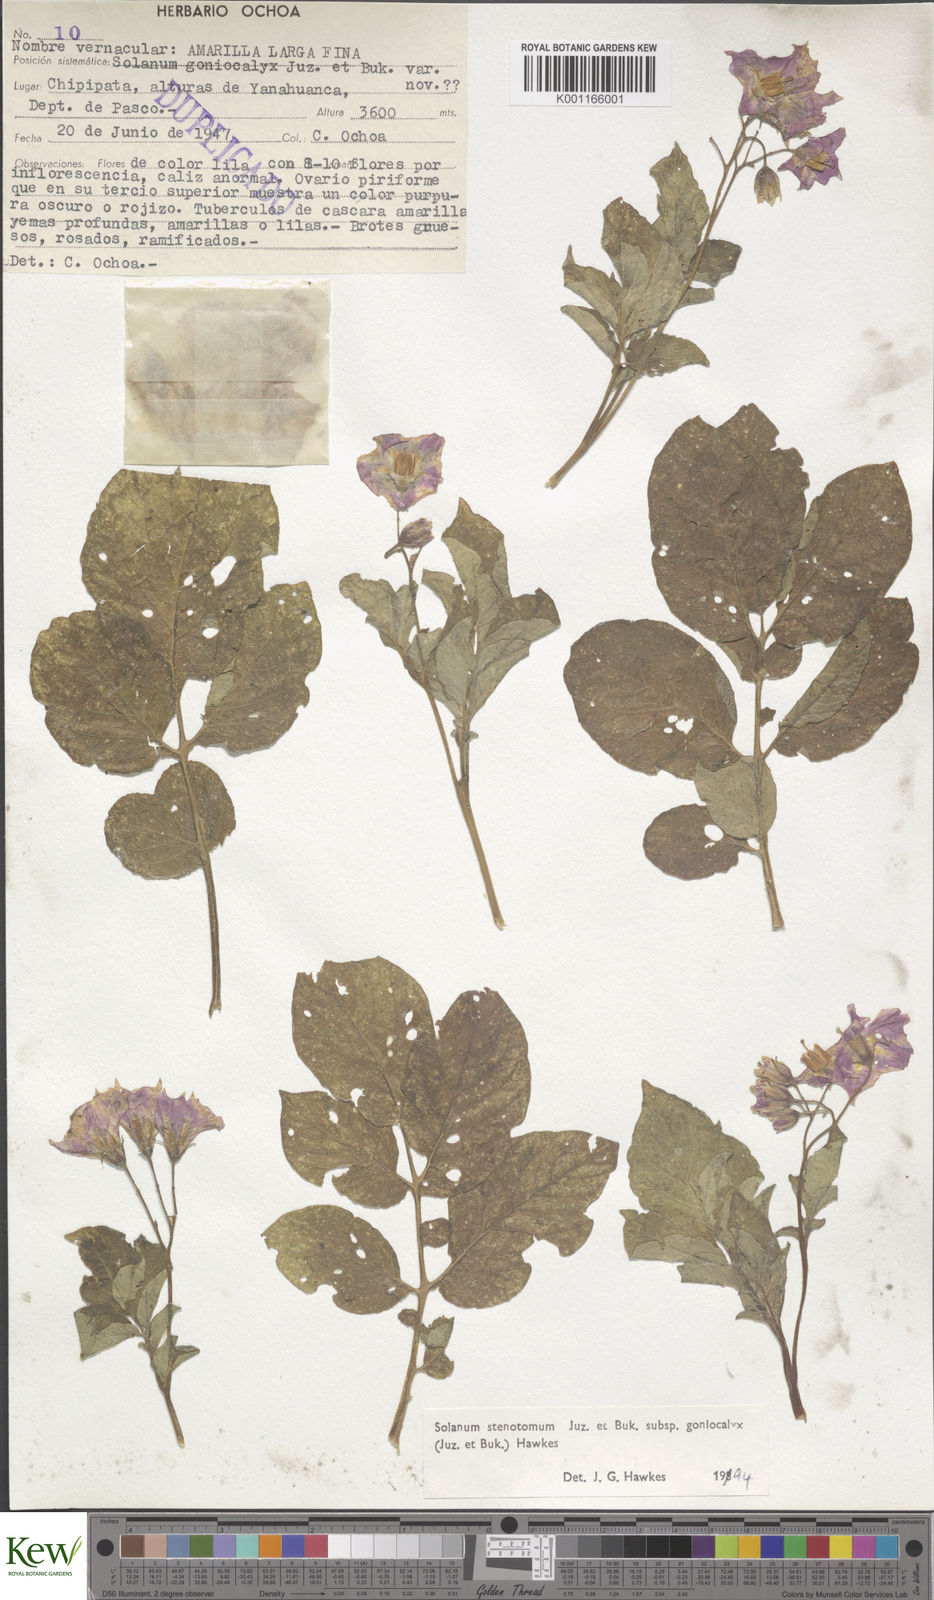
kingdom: Plantae
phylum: Tracheophyta
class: Magnoliopsida
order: Solanales
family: Solanaceae
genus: Solanum
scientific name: Solanum tuberosum
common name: Potato
